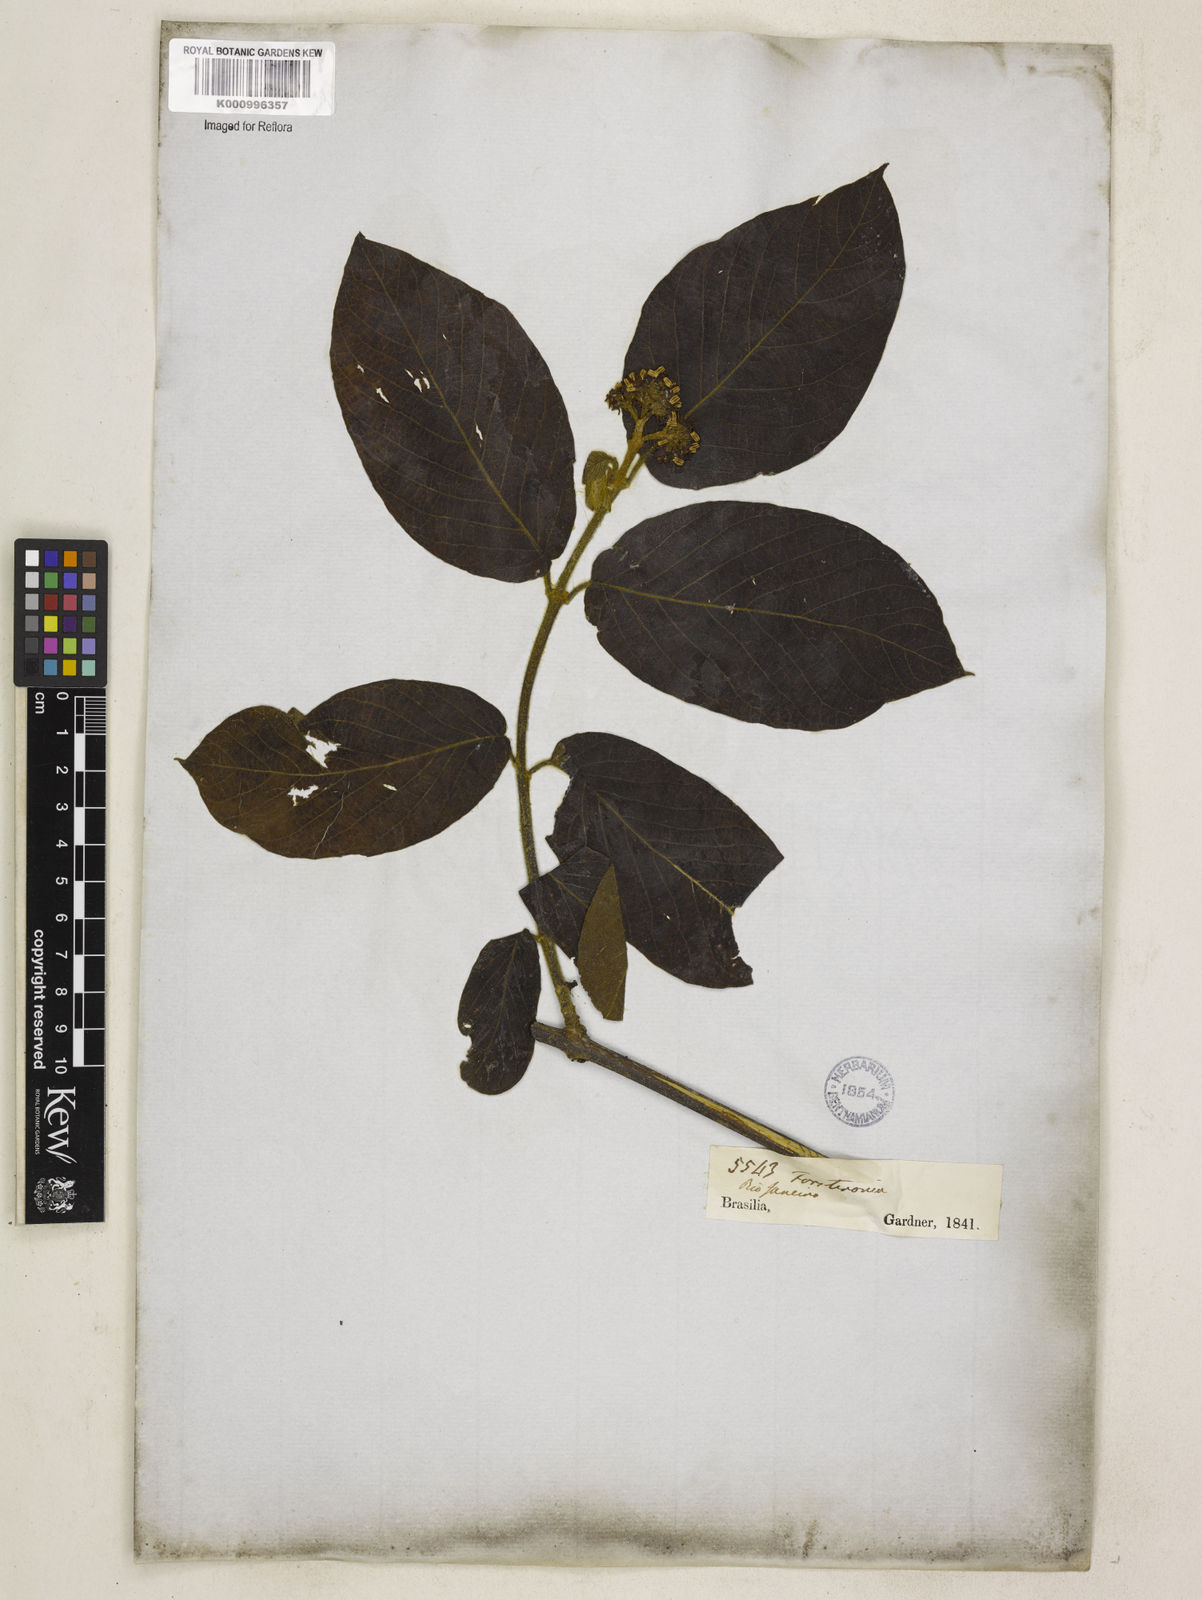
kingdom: Plantae
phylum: Tracheophyta
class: Magnoliopsida
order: Gentianales
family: Apocynaceae
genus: Forsteronia
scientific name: Forsteronia pubescens
